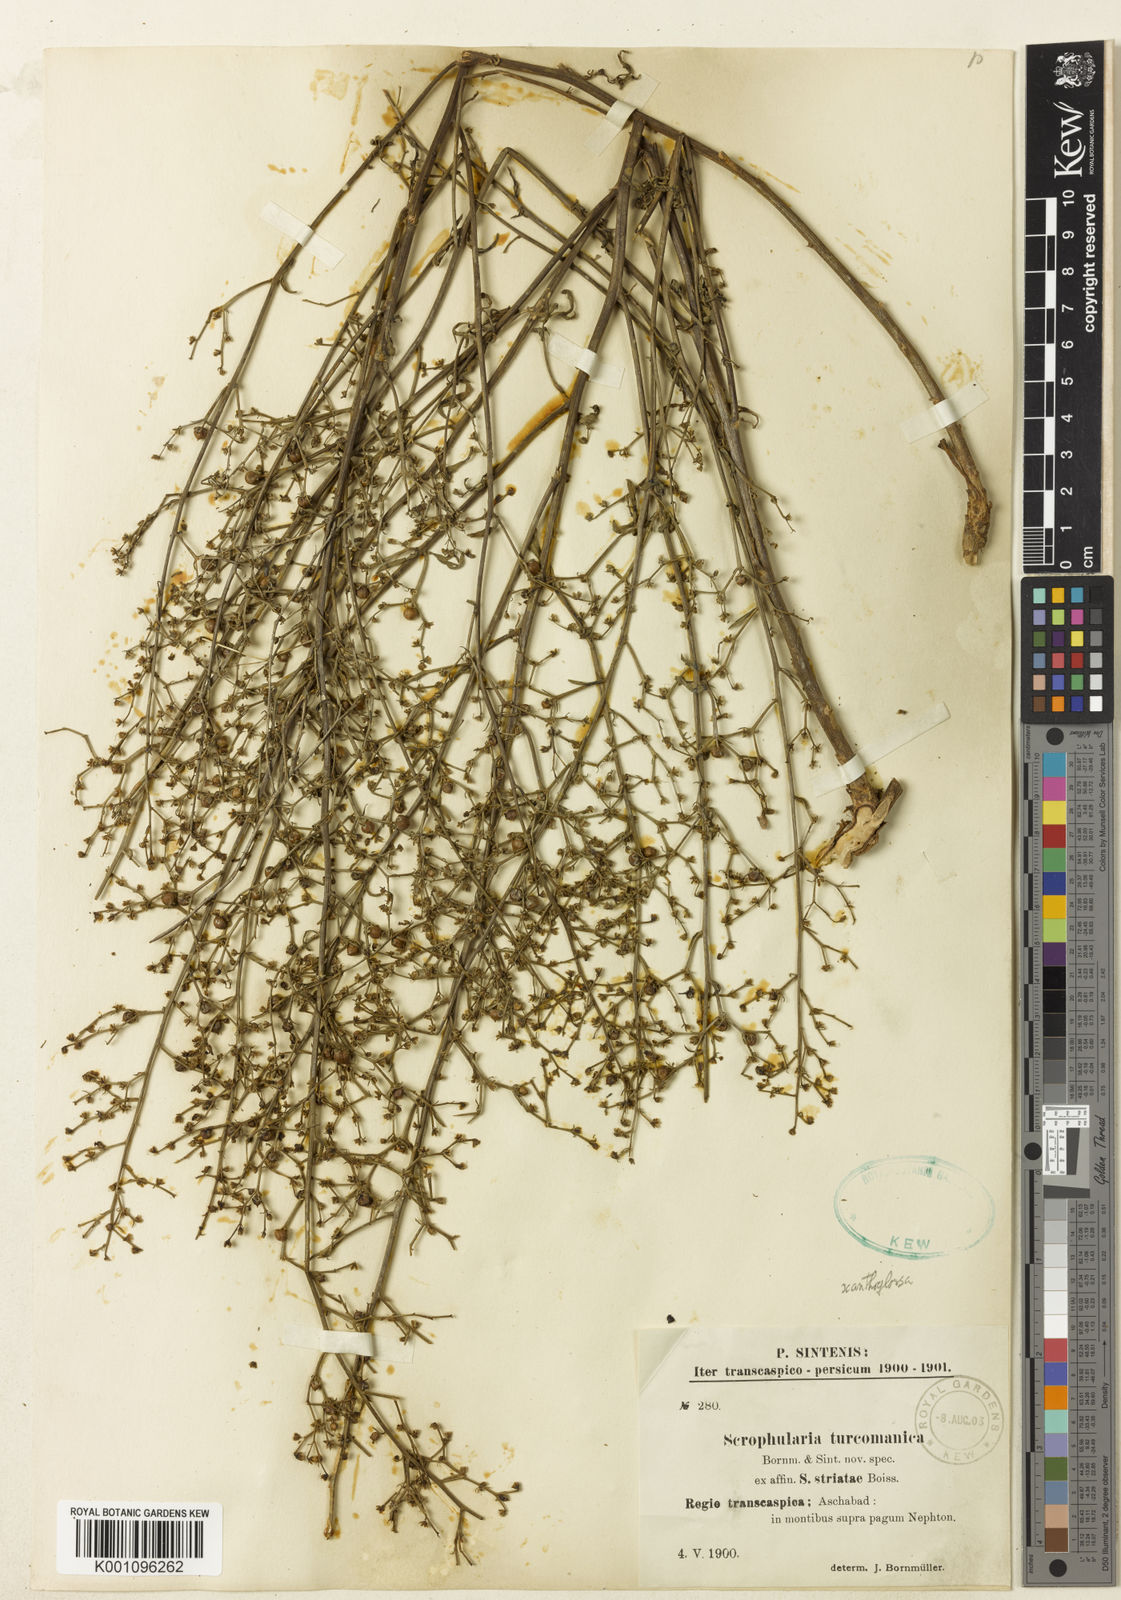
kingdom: Plantae
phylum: Tracheophyta
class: Magnoliopsida
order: Lamiales
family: Scrophulariaceae
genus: Scrophularia
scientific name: Scrophularia xanthoglossa
